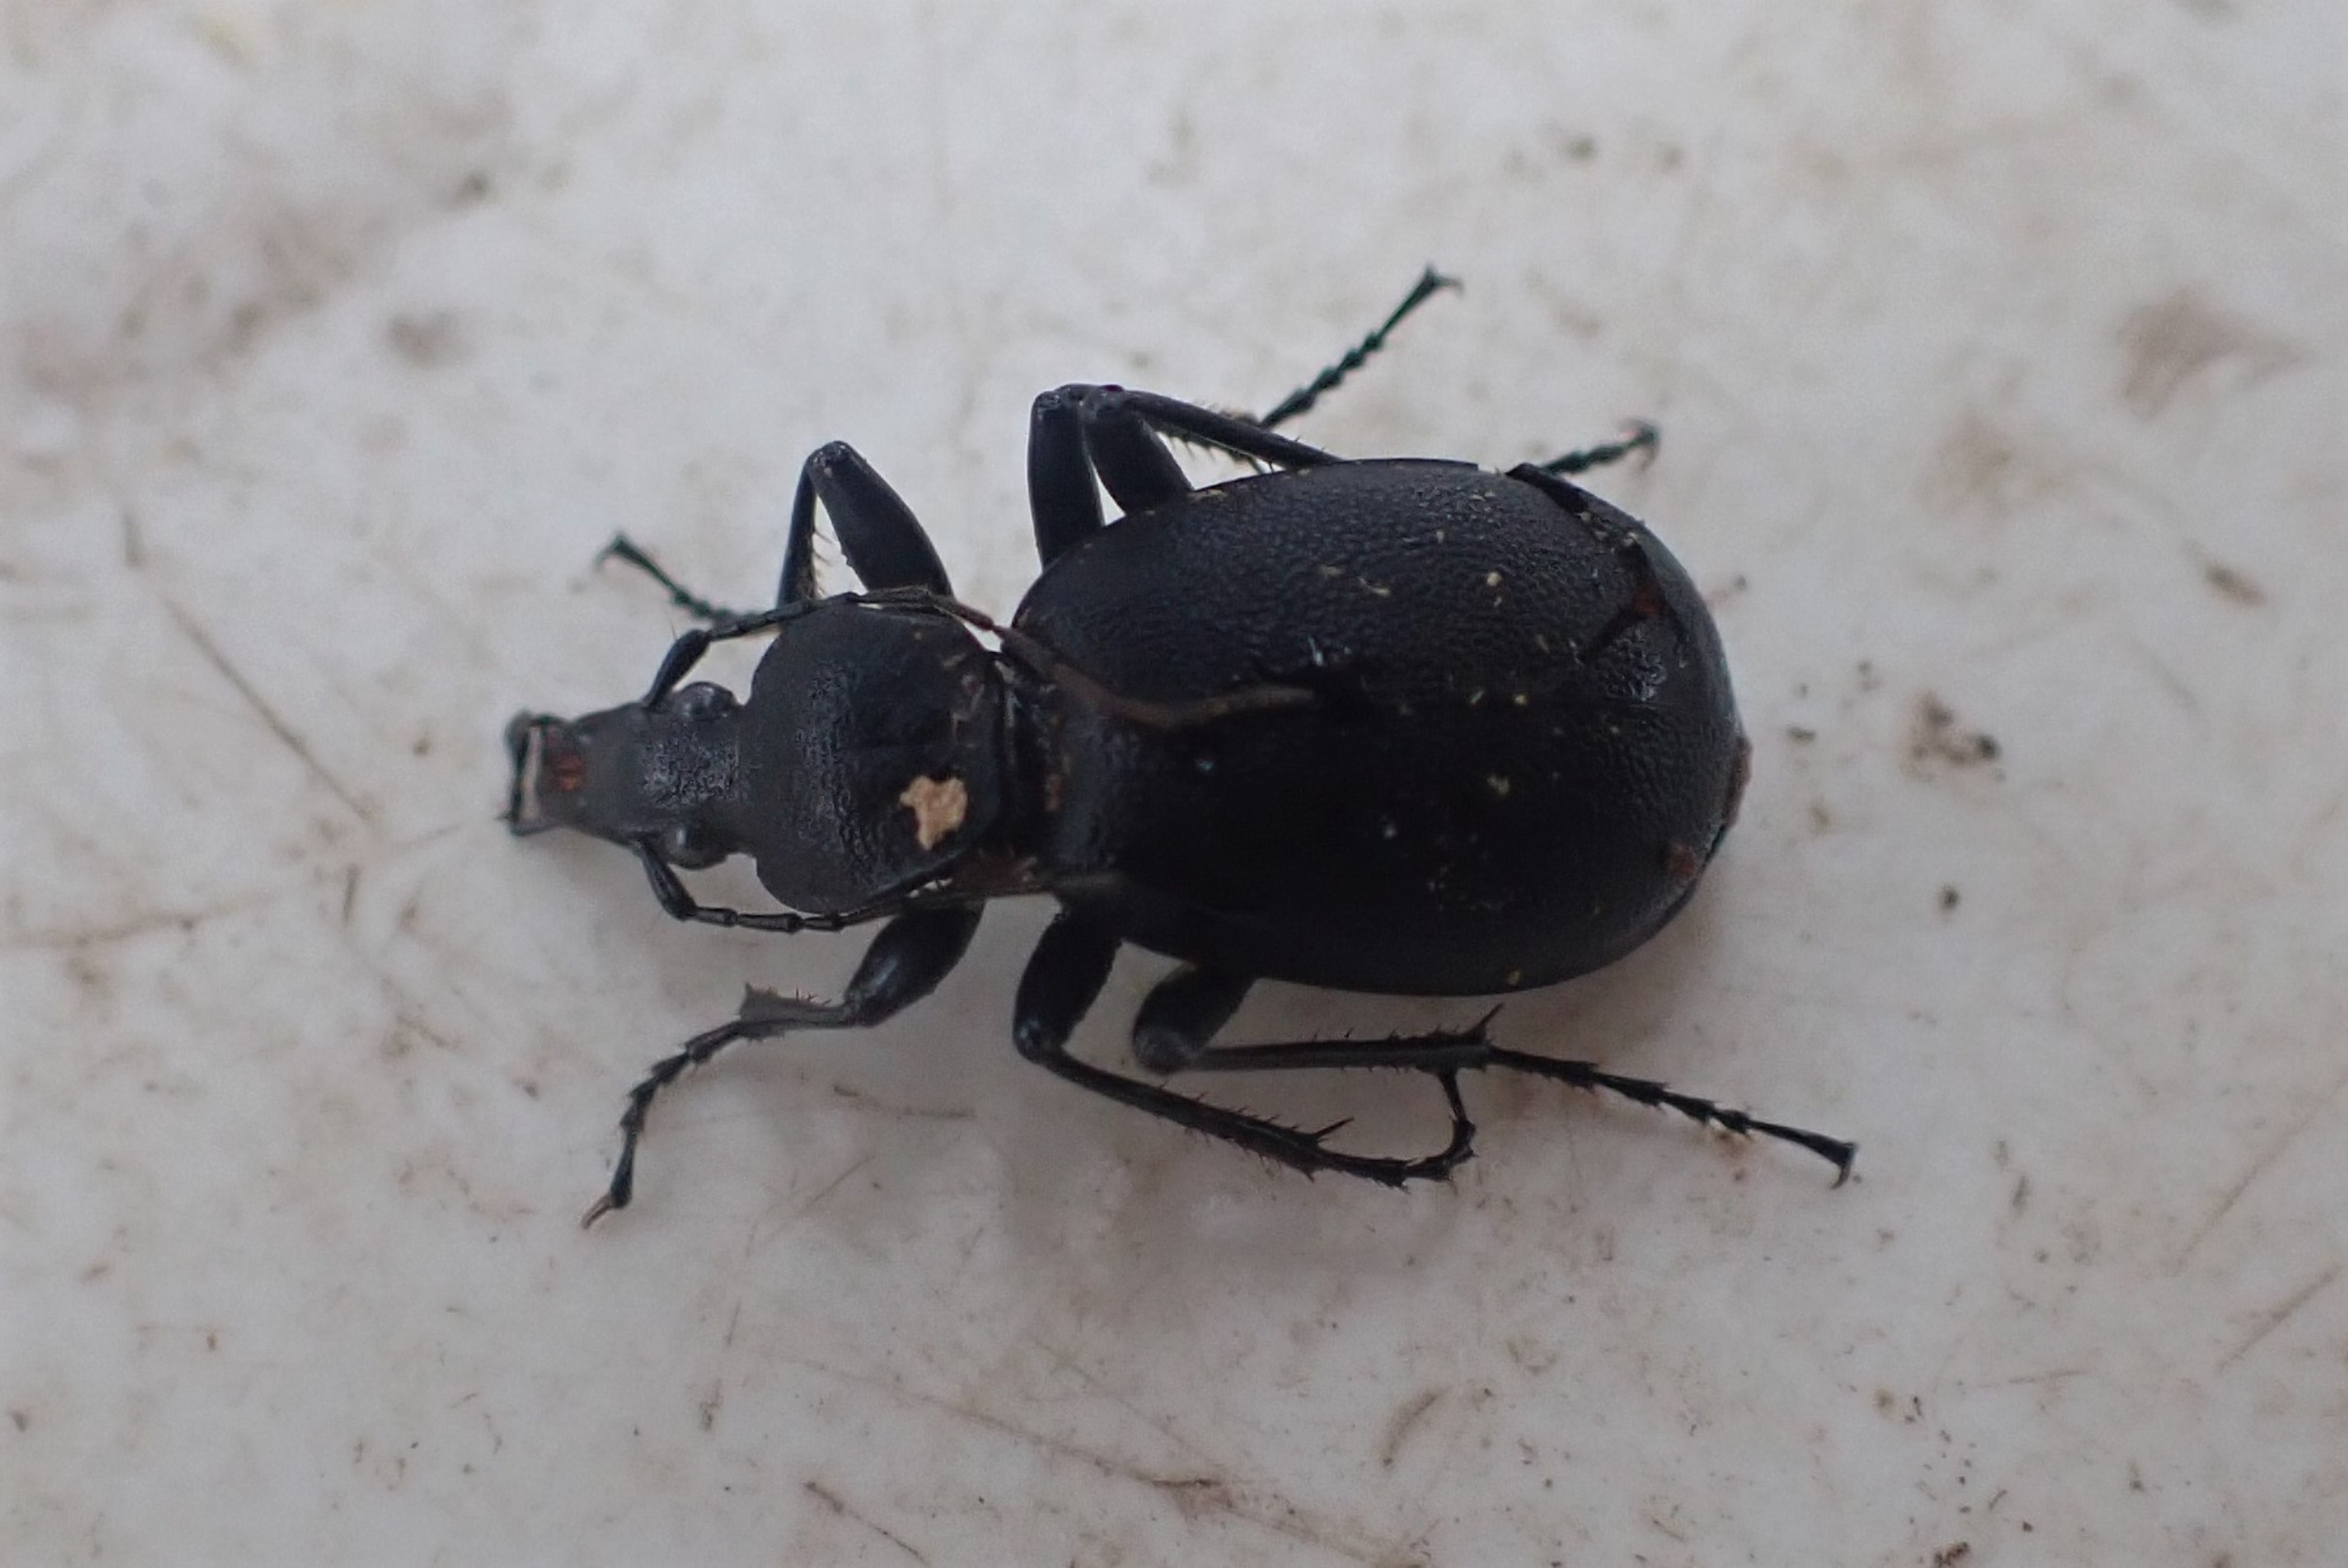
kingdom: Animalia
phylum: Arthropoda
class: Insecta
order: Coleoptera
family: Carabidae
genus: Cychrus
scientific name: Cychrus caraboides
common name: Sneglerøver
